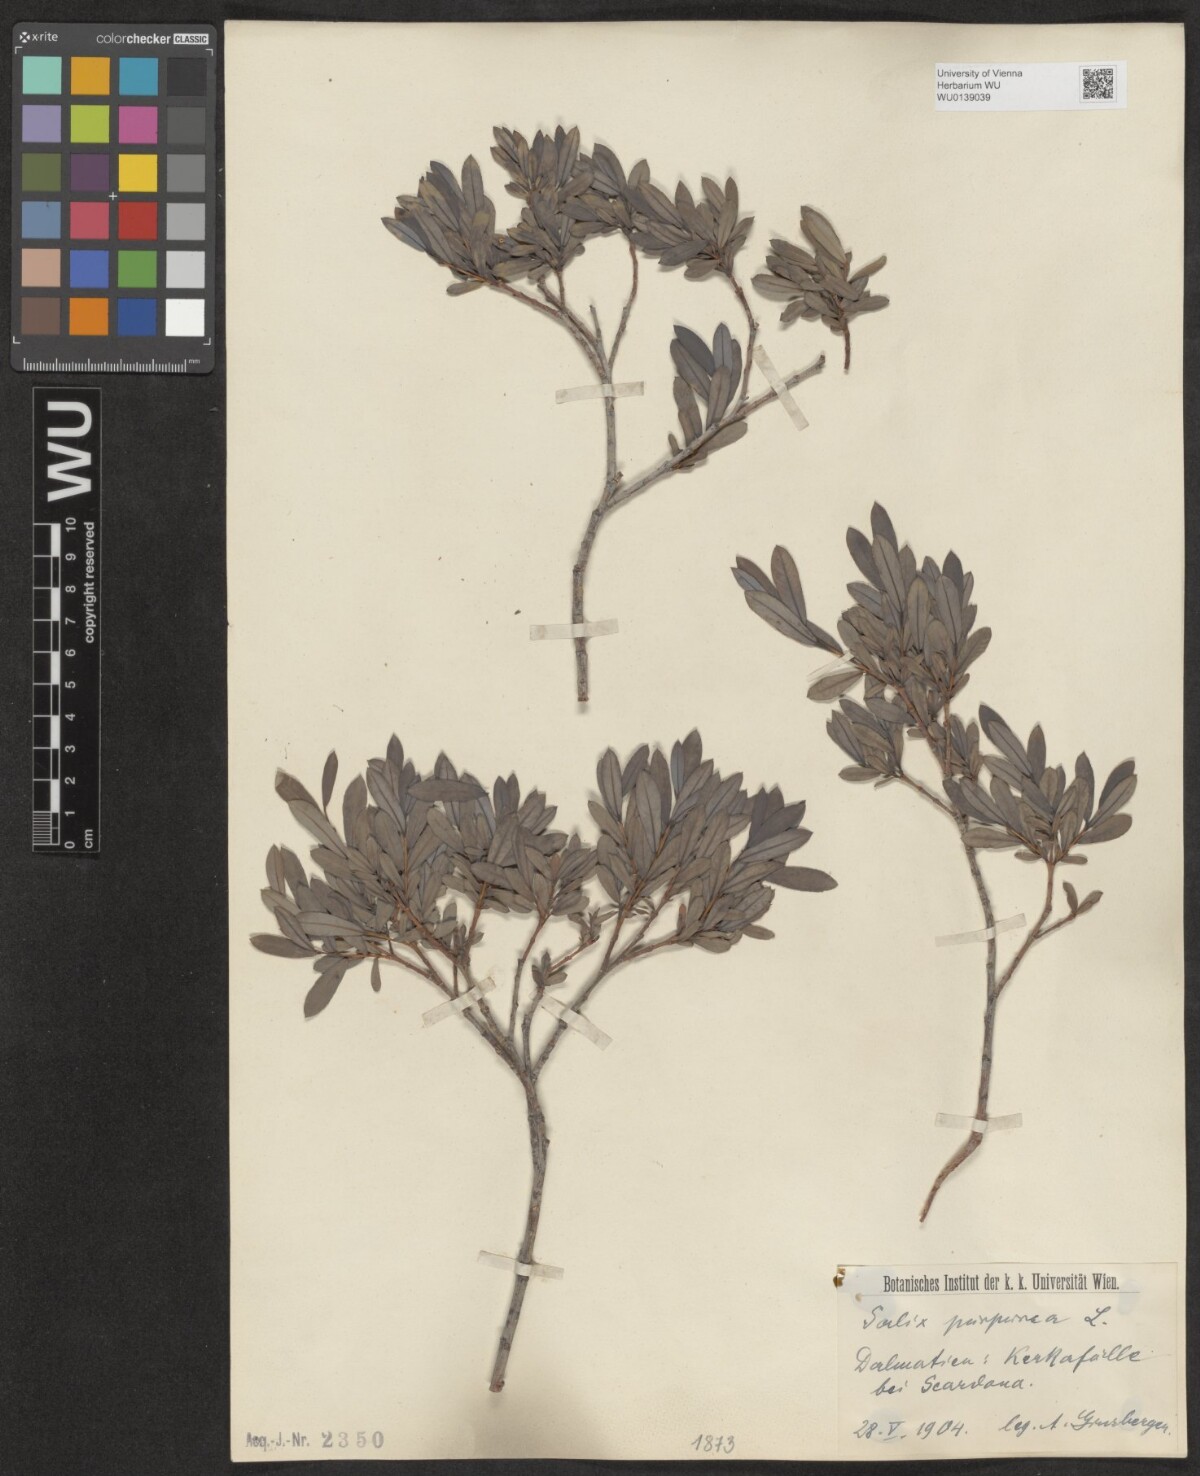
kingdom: Plantae
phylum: Tracheophyta
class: Magnoliopsida
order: Malpighiales
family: Salicaceae
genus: Salix
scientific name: Salix purpurea
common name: Purple willow
